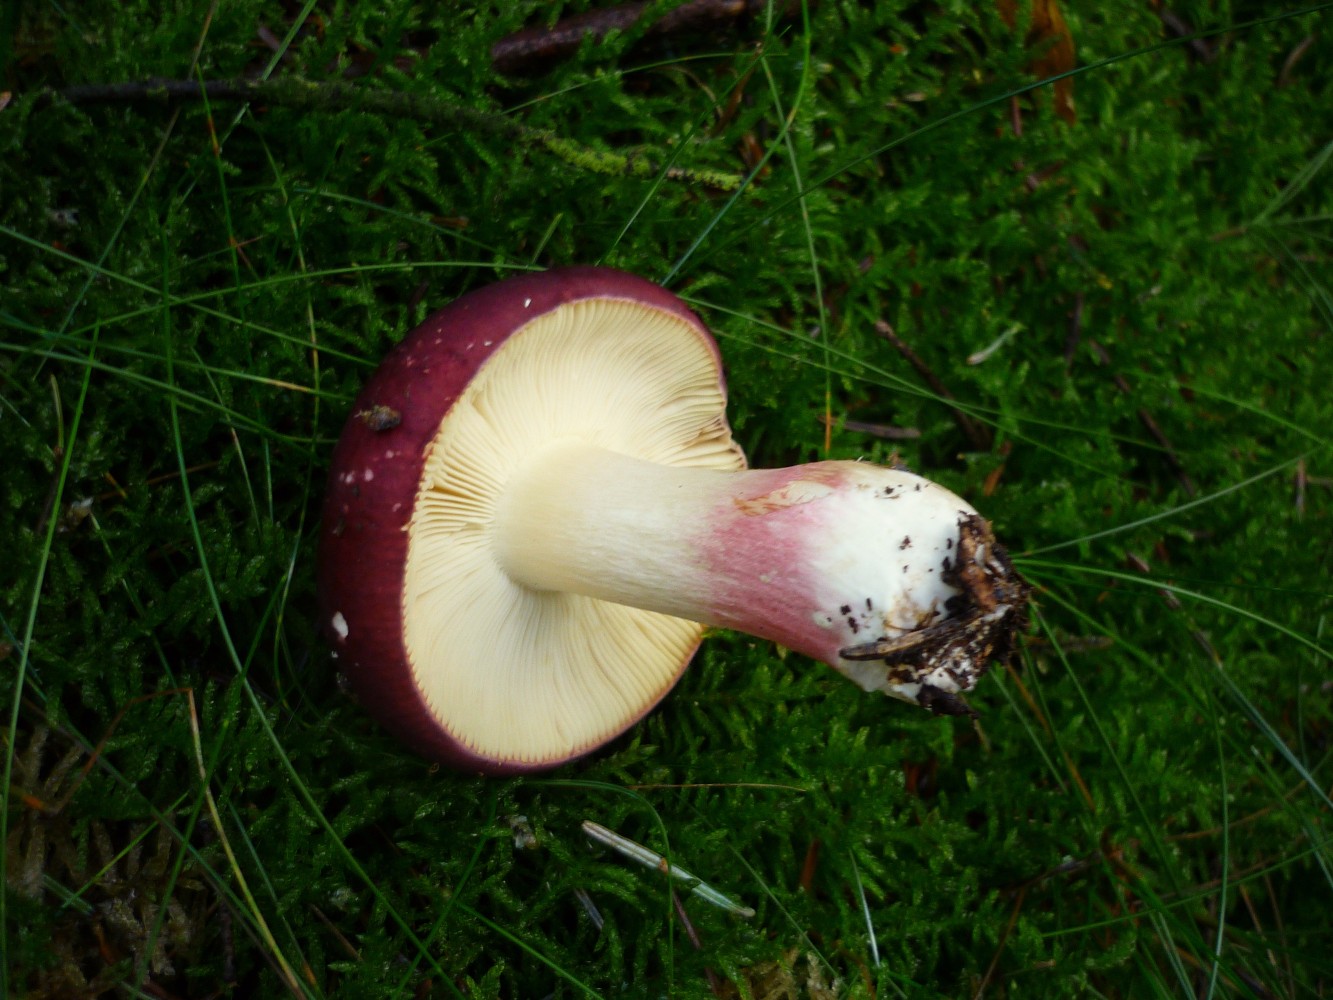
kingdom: Fungi
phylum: Basidiomycota
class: Agaricomycetes
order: Russulales
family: Russulaceae
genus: Russula
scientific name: Russula xerampelina
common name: hummer-skørhat
